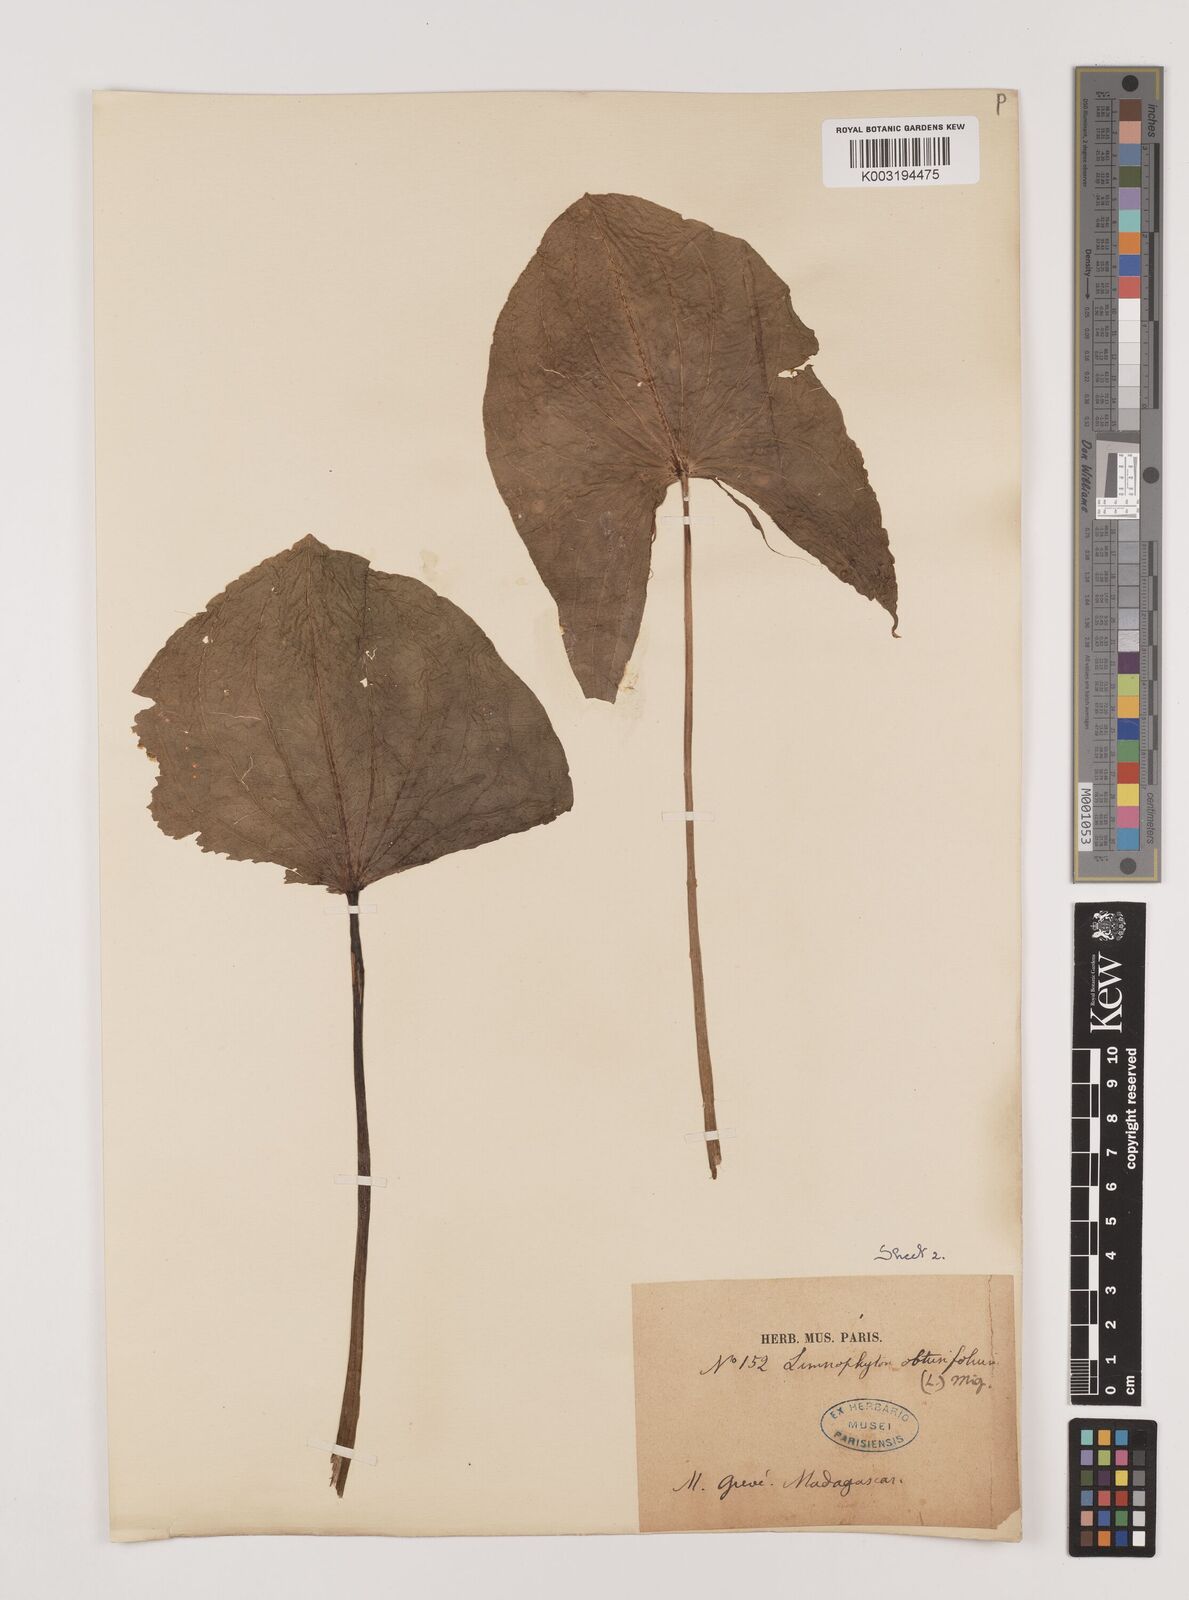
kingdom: Plantae
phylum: Tracheophyta
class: Liliopsida
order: Alismatales
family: Alismataceae
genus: Limnophyton
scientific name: Limnophyton obtusifolium
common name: Arrow head
